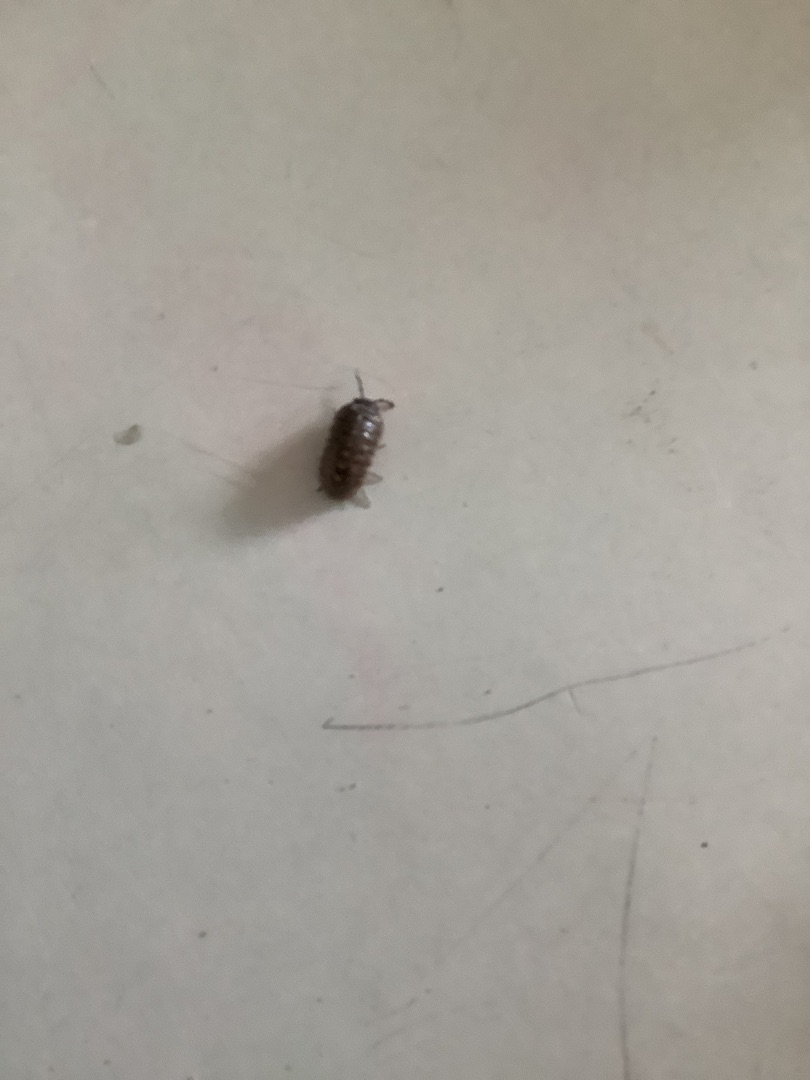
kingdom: Animalia
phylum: Arthropoda
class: Malacostraca
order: Isopoda
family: Armadillidiidae
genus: Armadillidium
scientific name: Armadillidium
